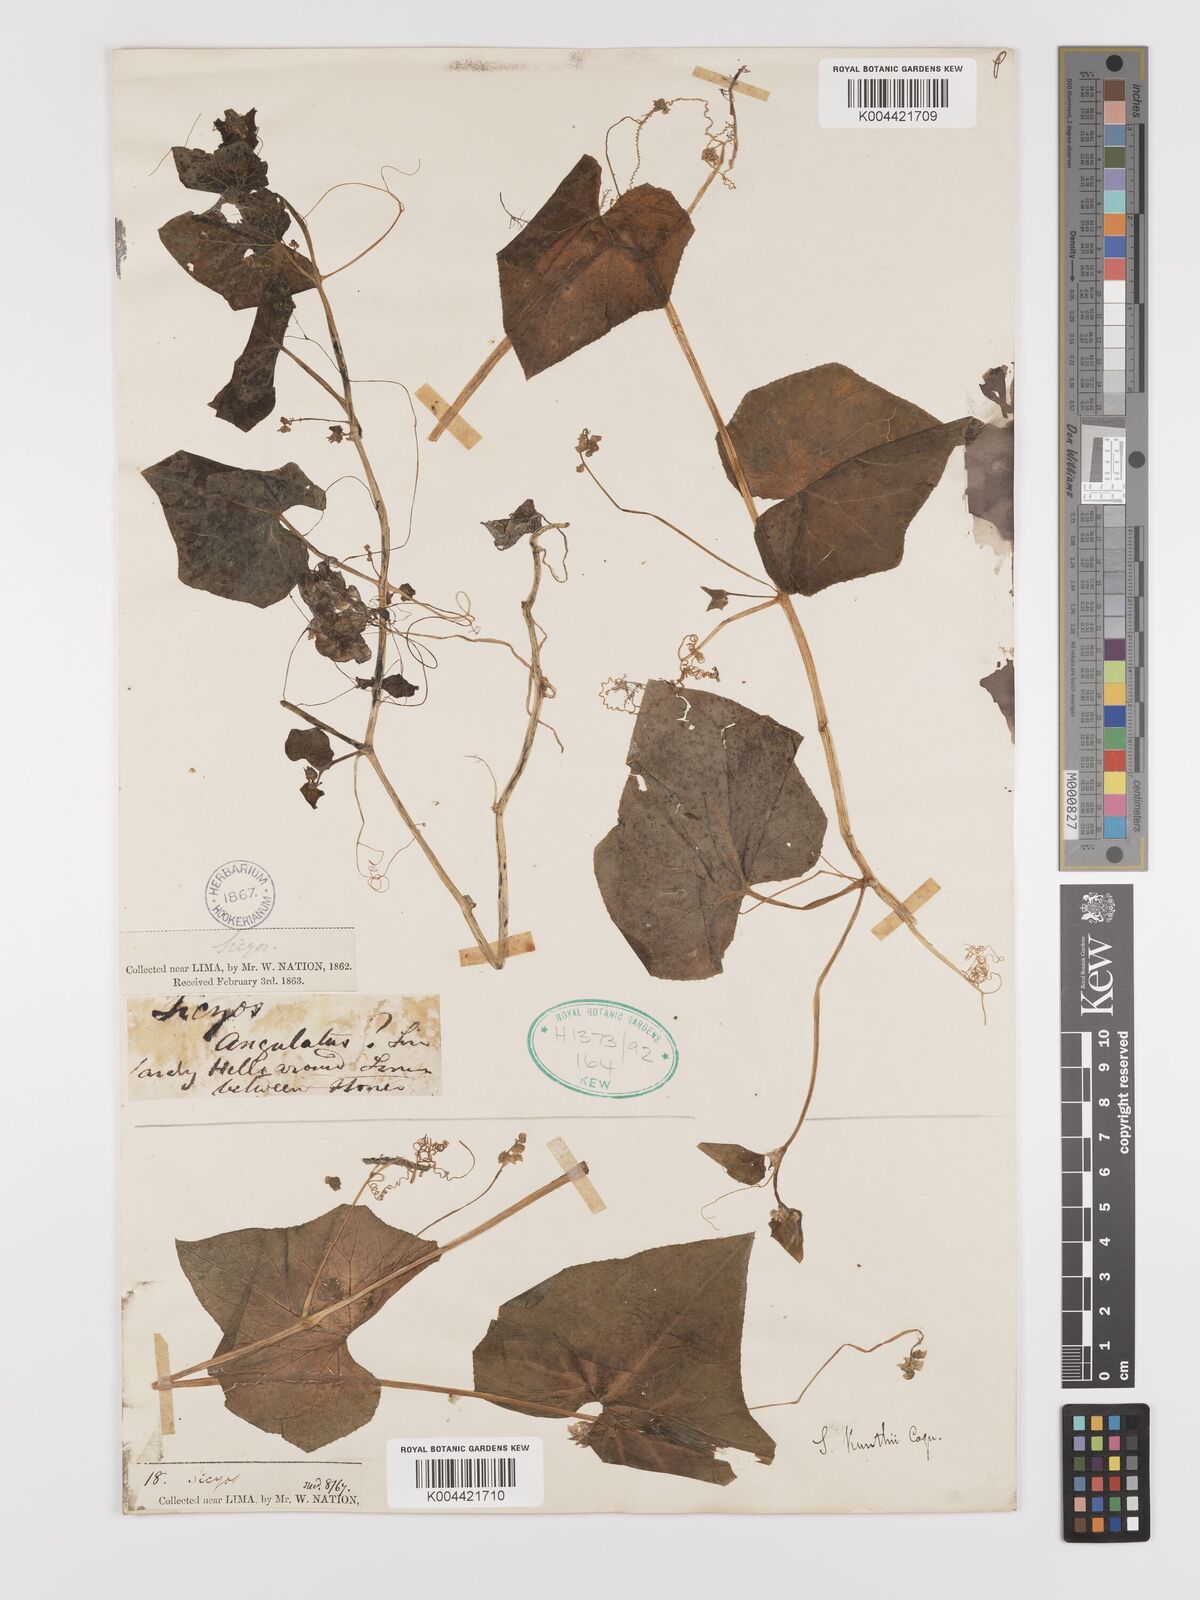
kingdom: Plantae
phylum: Tracheophyta
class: Magnoliopsida
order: Cucurbitales
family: Cucurbitaceae
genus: Sicyos
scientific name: Sicyos kunthii
